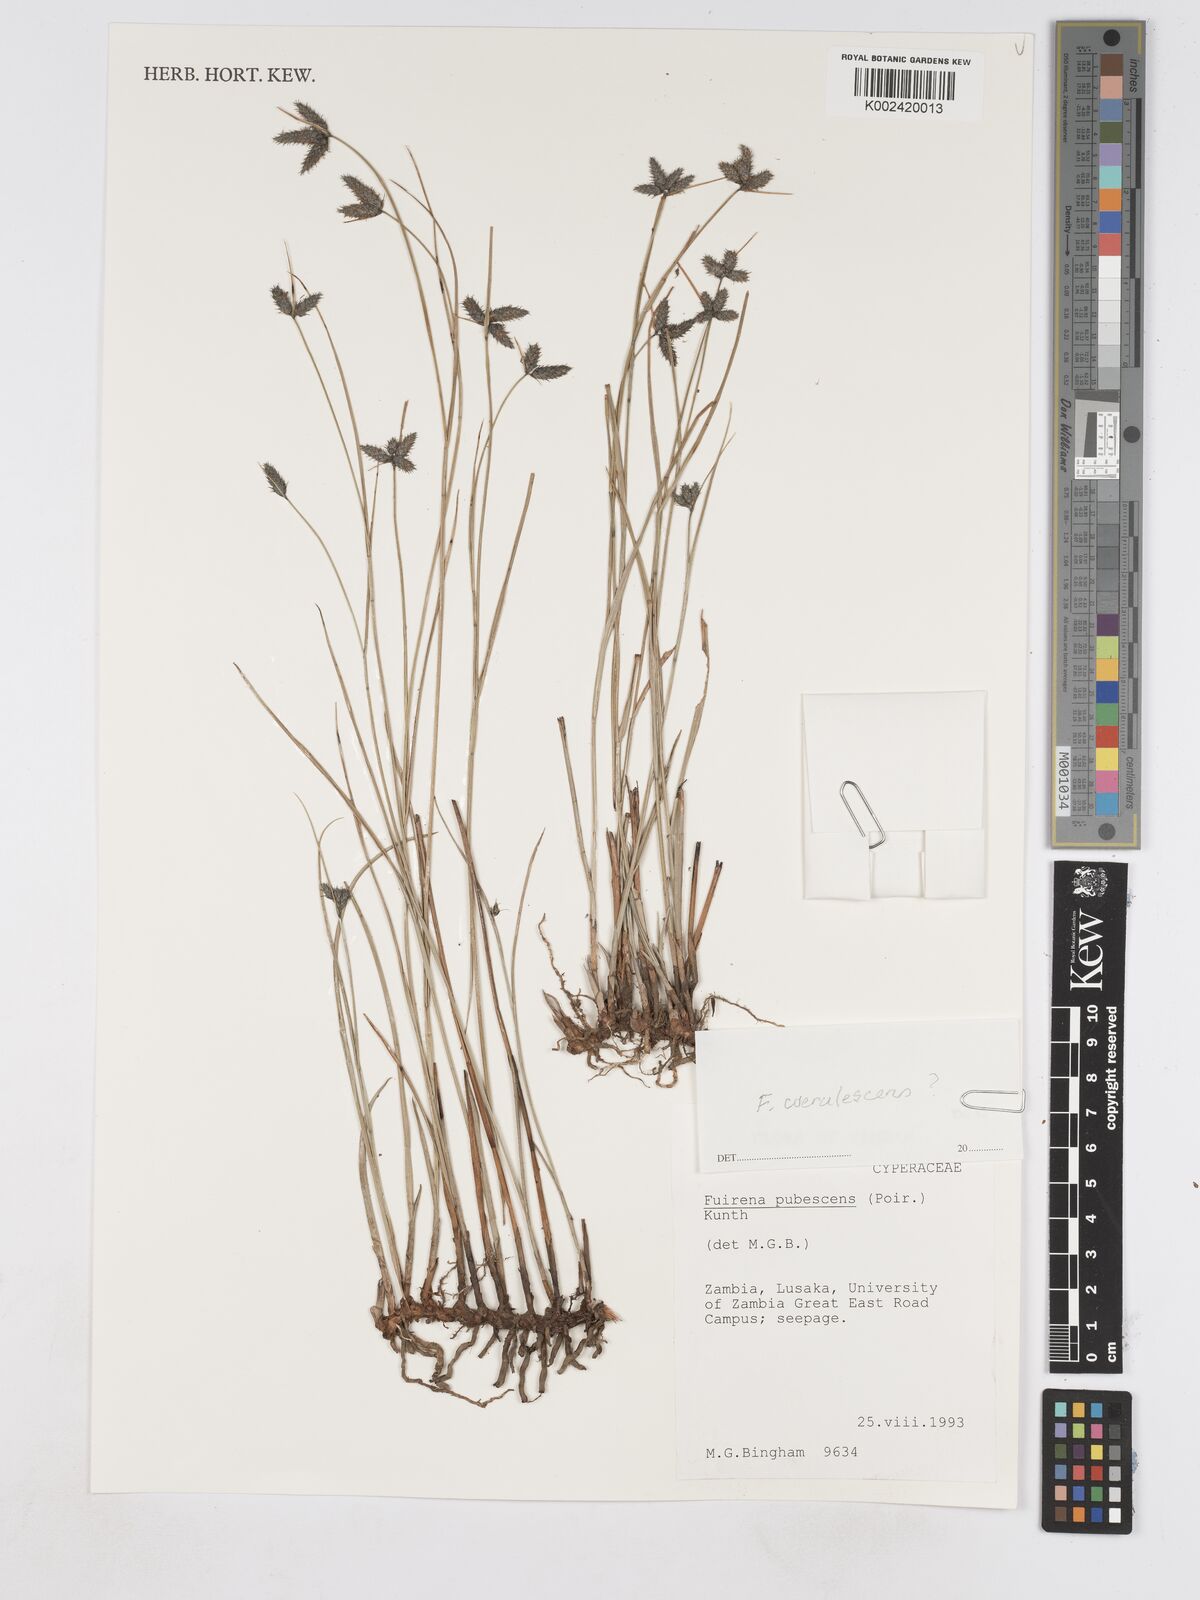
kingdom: Plantae
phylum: Tracheophyta
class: Liliopsida
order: Poales
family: Cyperaceae
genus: Fuirena
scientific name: Fuirena coerulescens
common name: Blue umbrella-sedge
